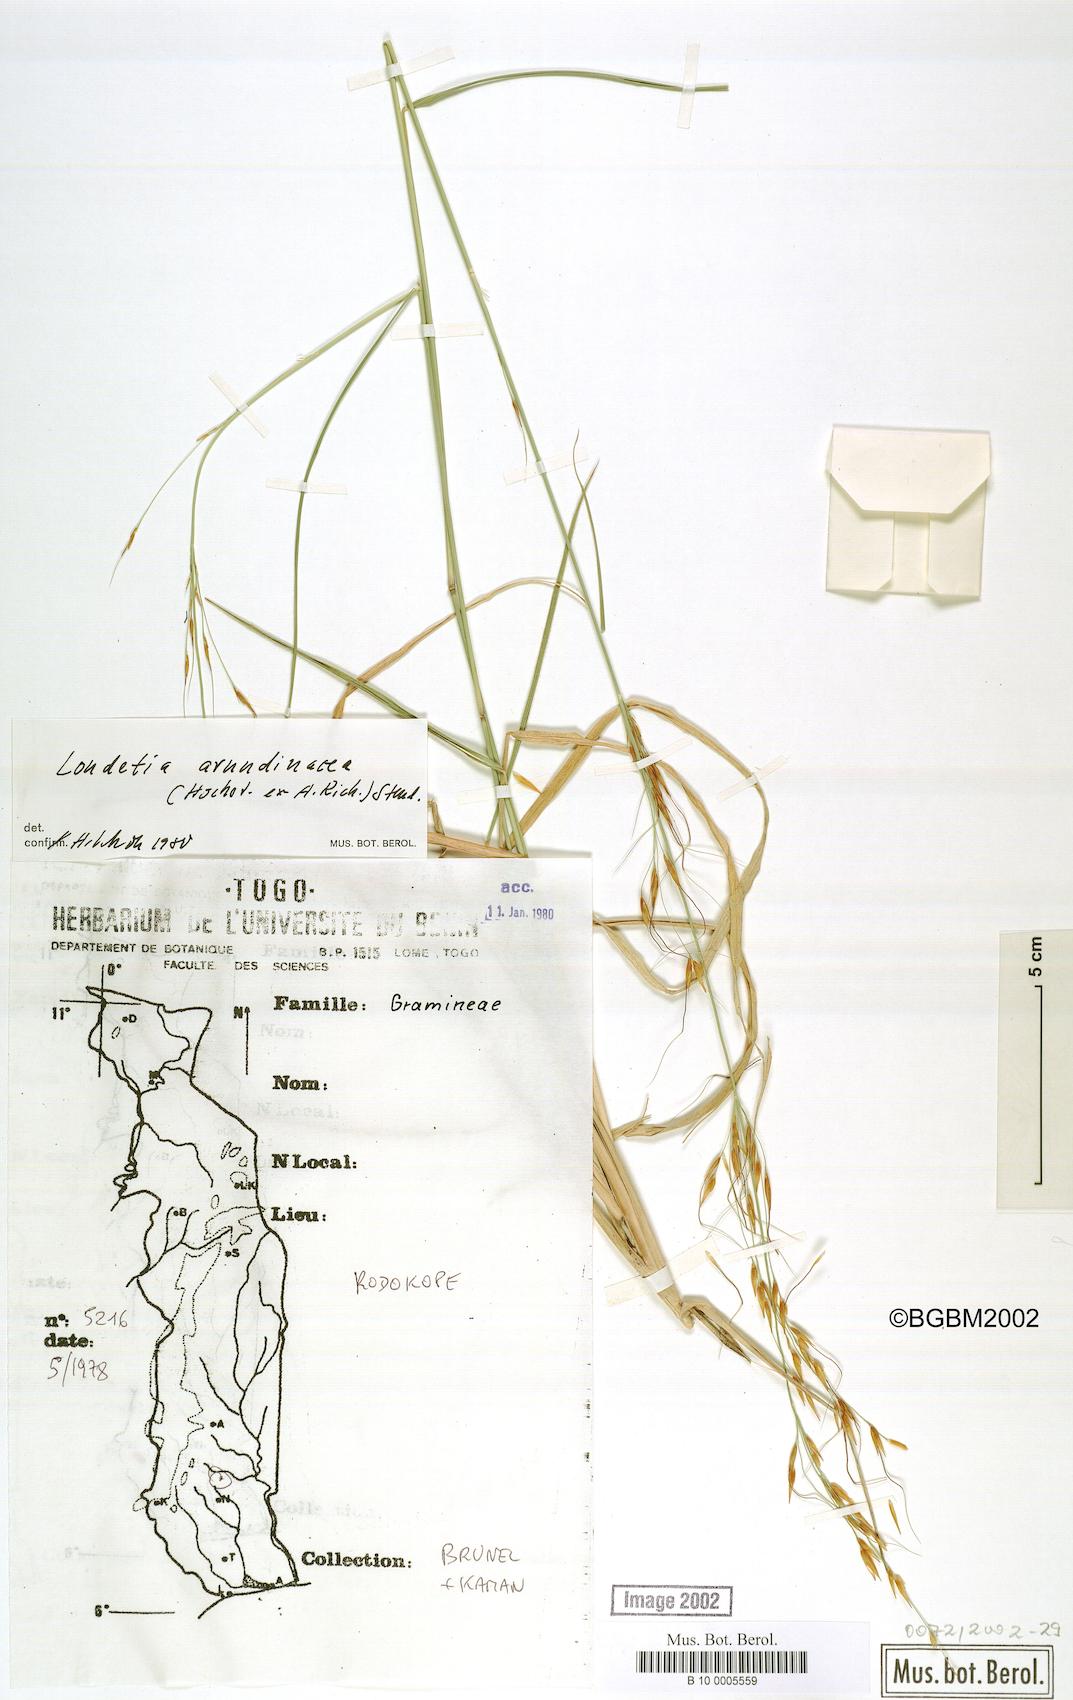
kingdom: Plantae
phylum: Tracheophyta
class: Liliopsida
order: Poales
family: Poaceae
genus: Loudetia
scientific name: Loudetia arundinacea
